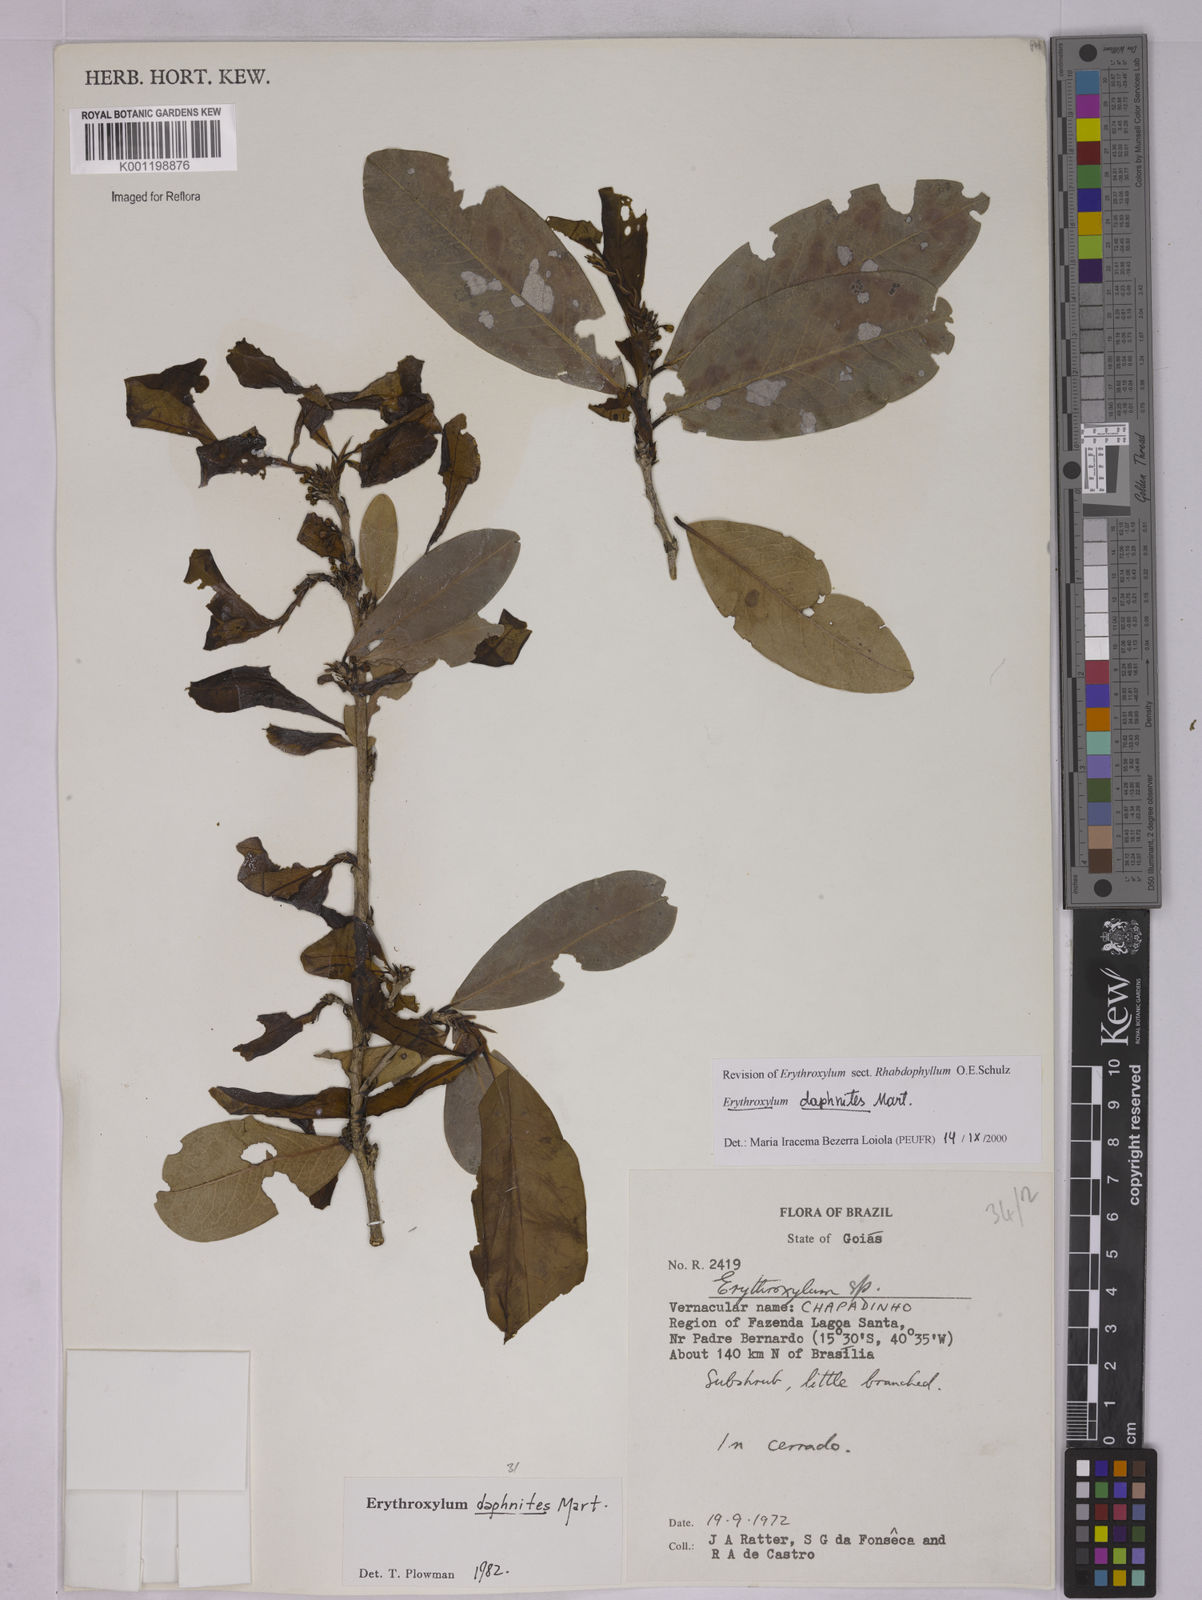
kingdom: Plantae
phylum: Tracheophyta
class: Magnoliopsida
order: Malpighiales
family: Erythroxylaceae
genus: Erythroxylum
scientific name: Erythroxylum daphnites
